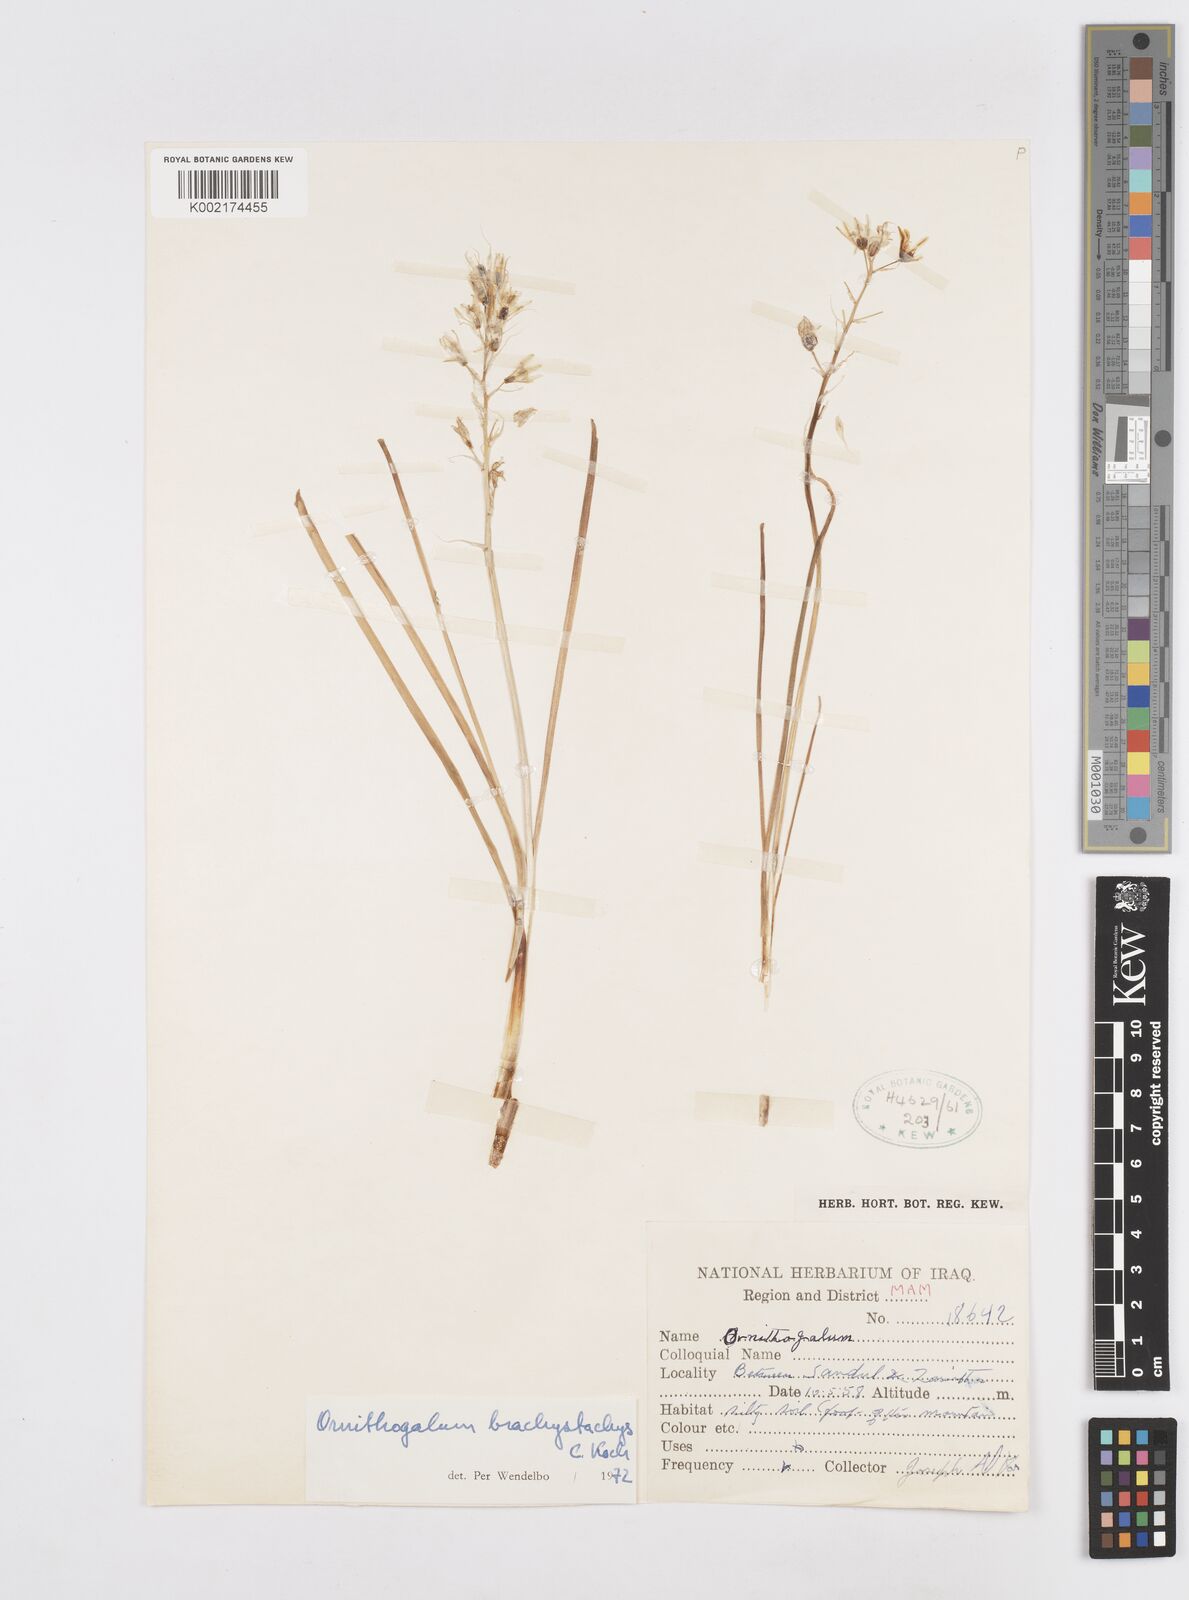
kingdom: Plantae
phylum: Tracheophyta
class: Liliopsida
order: Asparagales
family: Asparagaceae
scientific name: Asparagaceae
